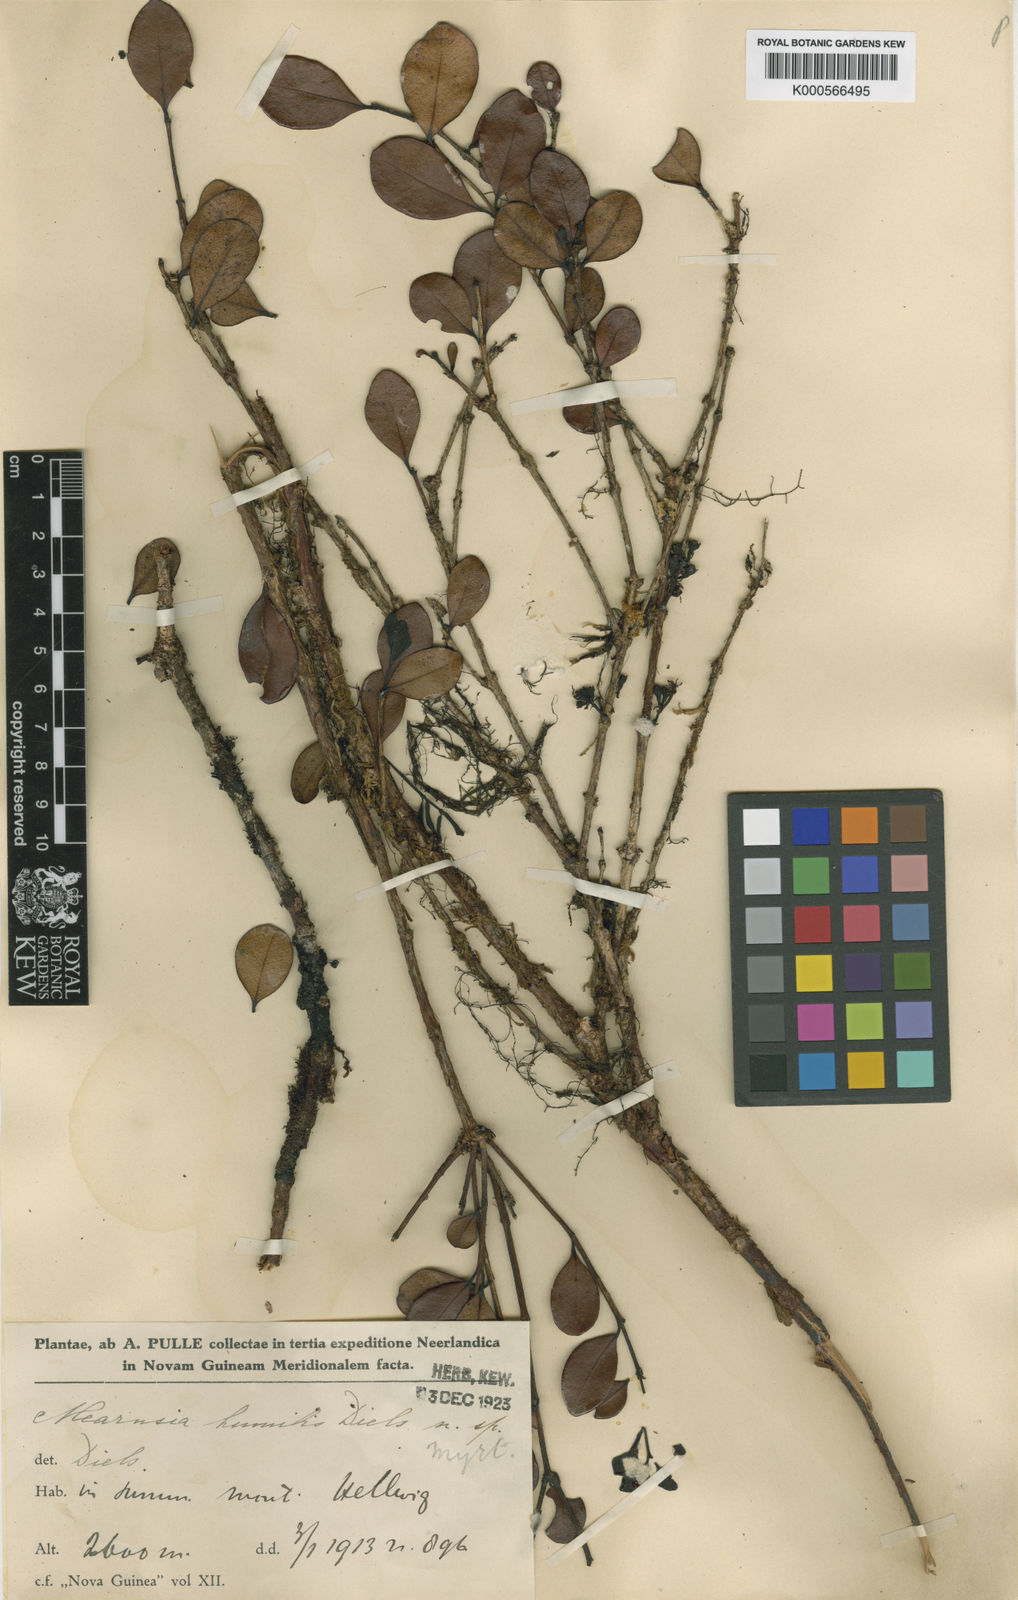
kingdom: Plantae
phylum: Tracheophyta
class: Magnoliopsida
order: Myrtales
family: Myrtaceae
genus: Metrosideros
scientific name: Metrosideros
